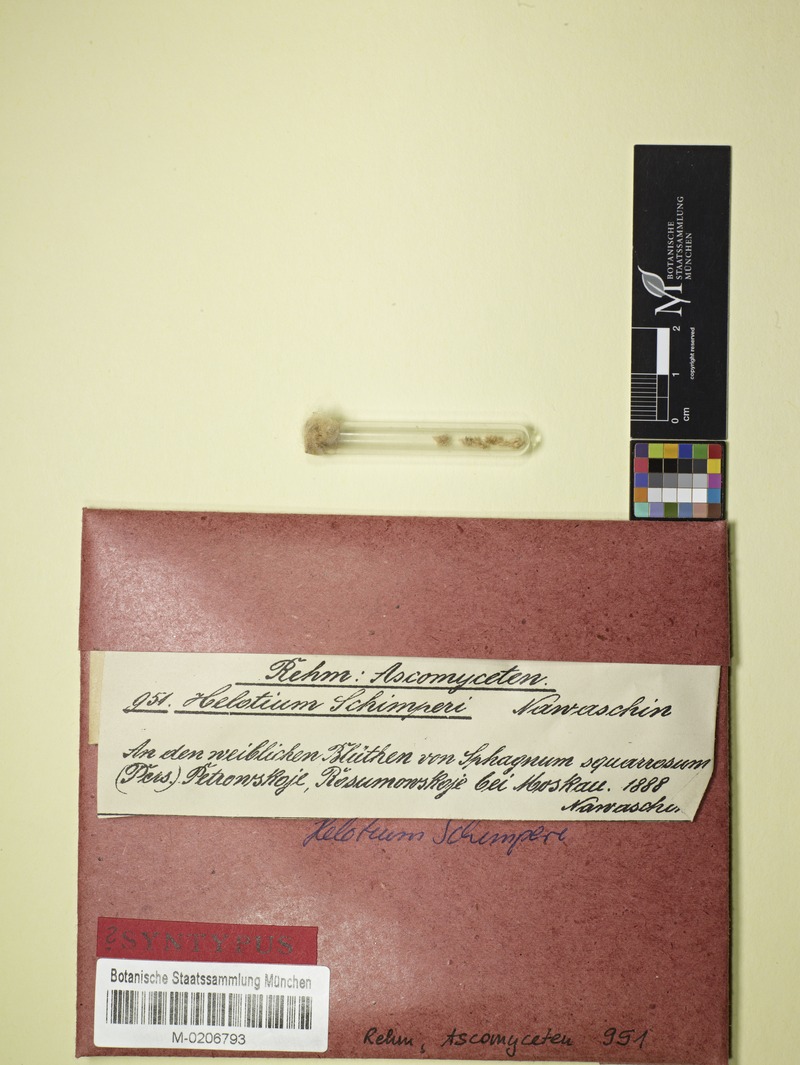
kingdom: Fungi
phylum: Ascomycota
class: Leotiomycetes
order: Helotiales
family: Tricladiaceae
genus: Helotium
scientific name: Helotium schimperi
